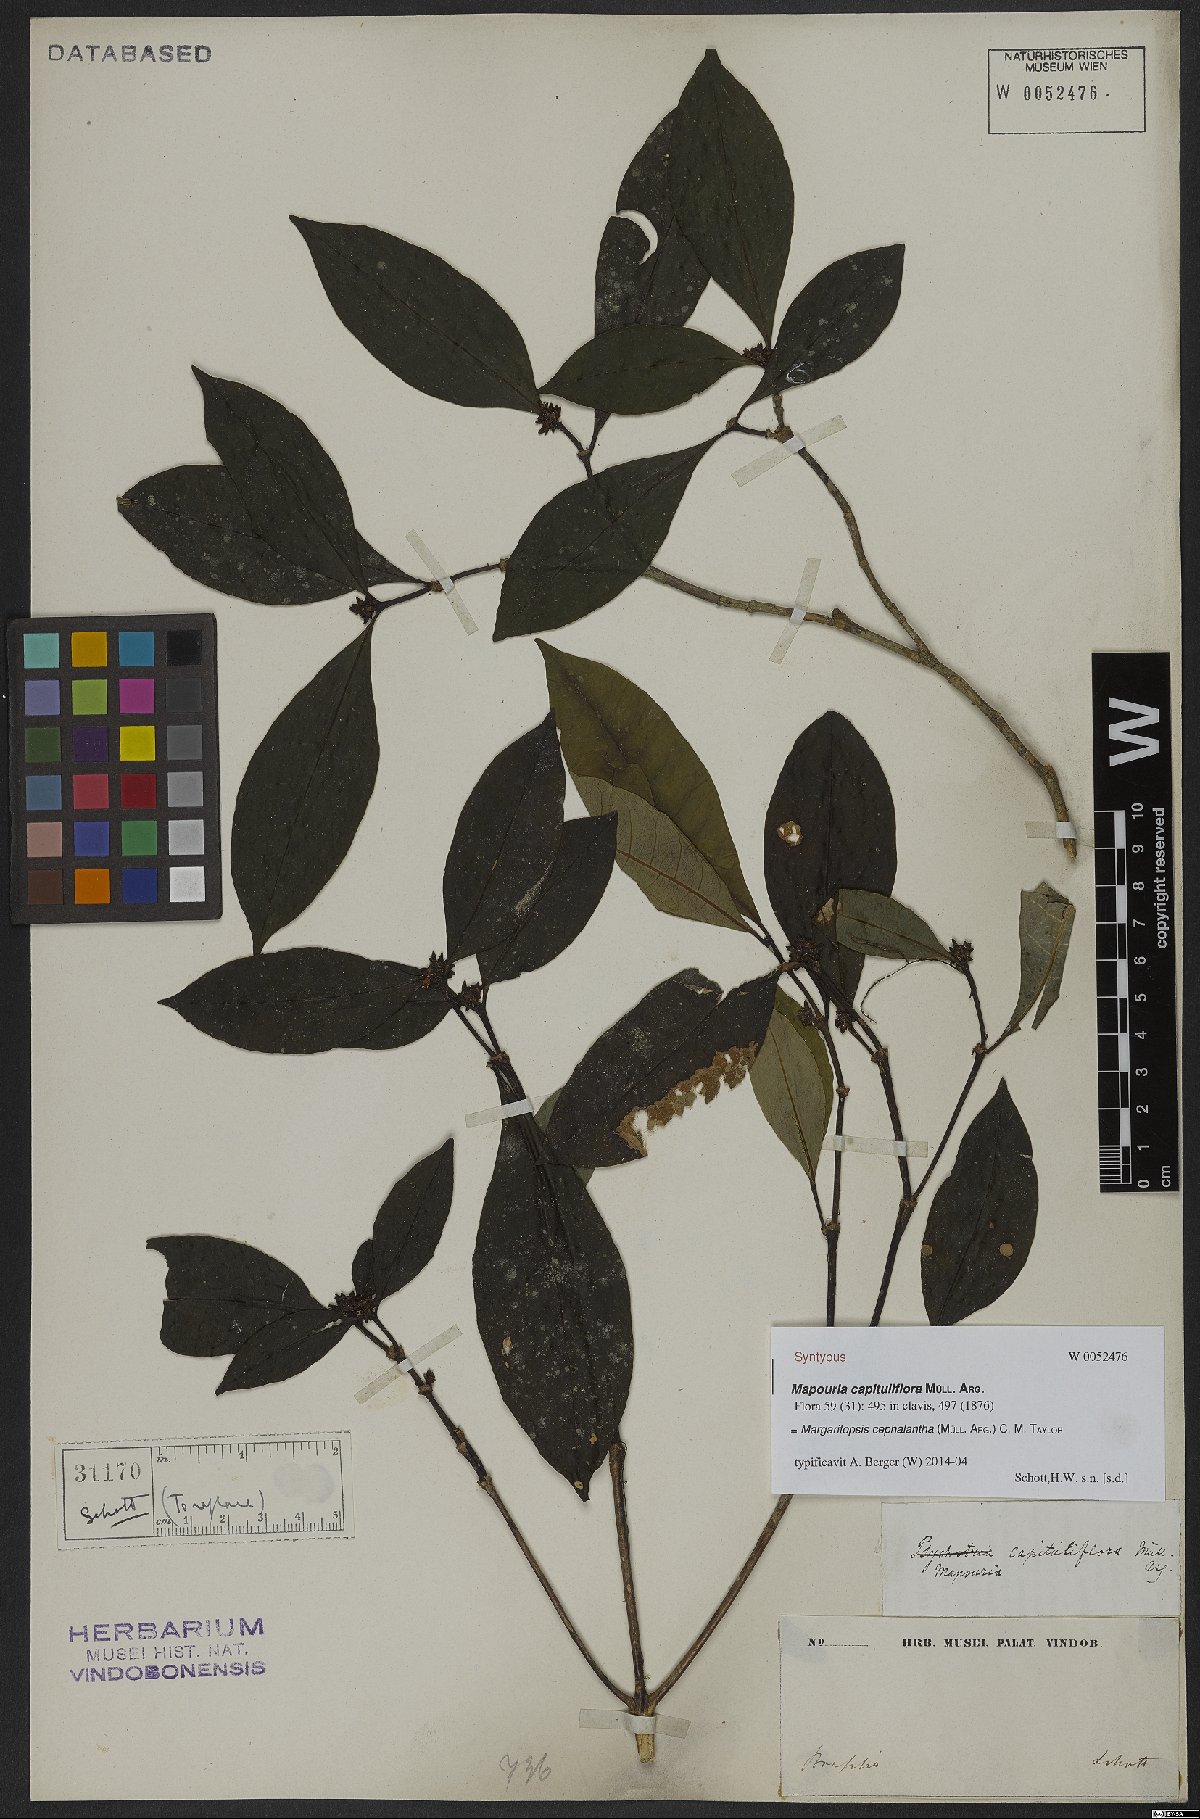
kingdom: Plantae
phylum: Tracheophyta
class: Magnoliopsida
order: Gentianales
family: Rubiaceae
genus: Eumachia
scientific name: Eumachia cephalantha
